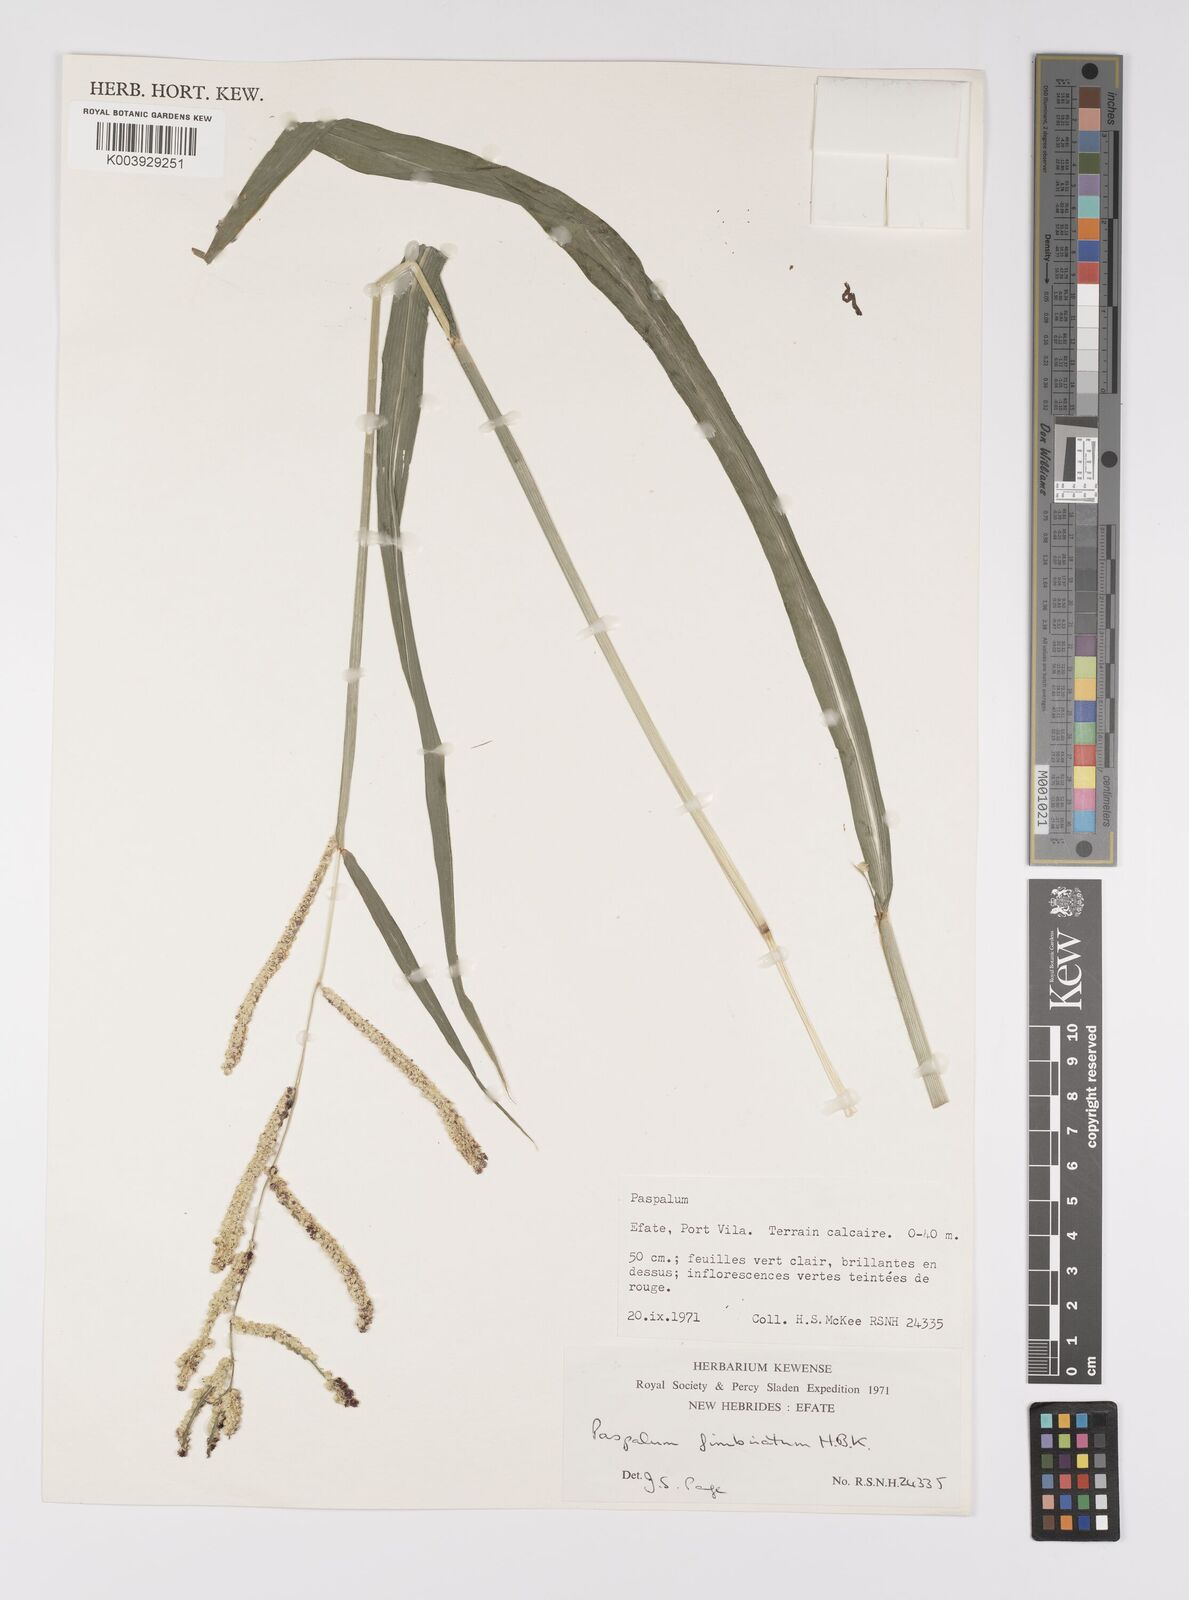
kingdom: Plantae
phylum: Tracheophyta
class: Liliopsida
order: Poales
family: Poaceae
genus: Paspalum
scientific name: Paspalum fimbriatum
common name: Panama crowngrass
